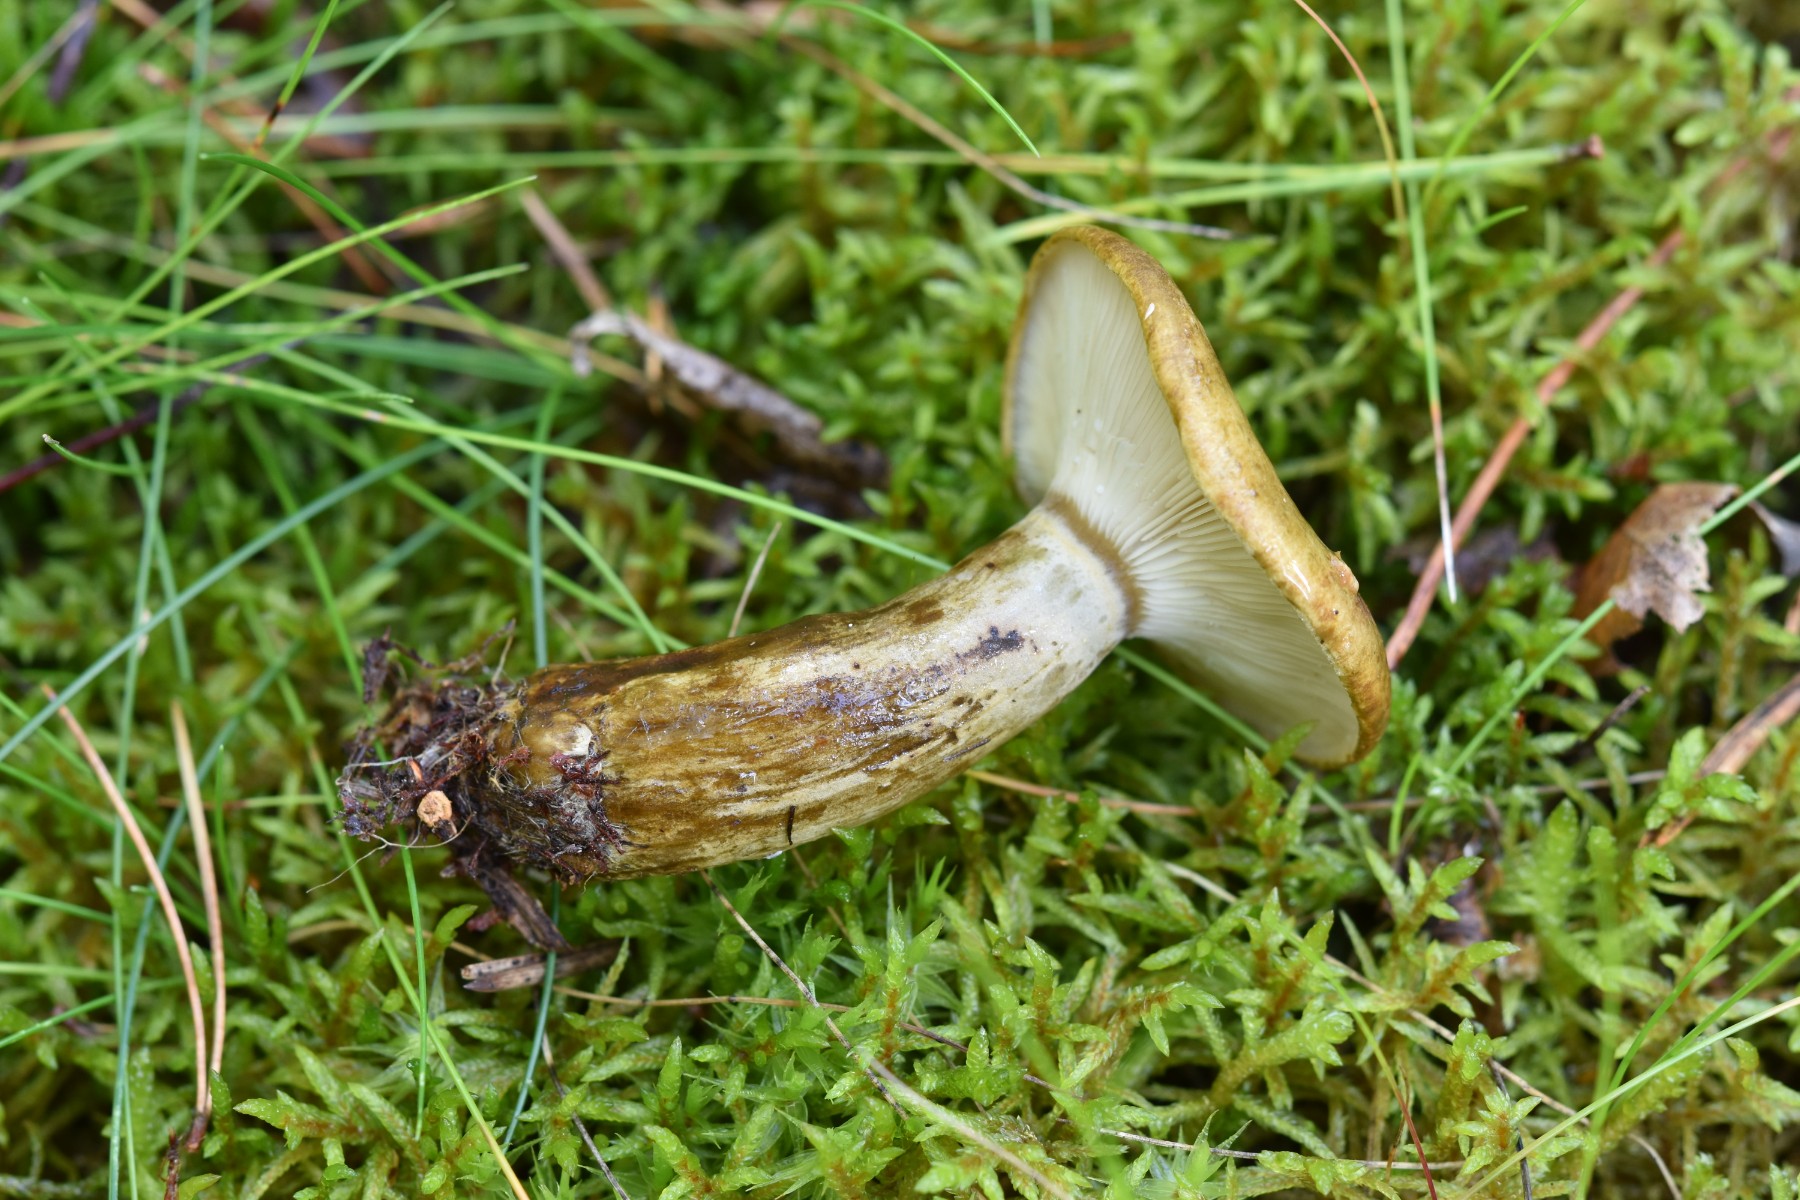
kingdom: Fungi
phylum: Basidiomycota
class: Agaricomycetes
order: Russulales
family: Russulaceae
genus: Lactarius
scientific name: Lactarius necator
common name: manddraber-mælkehat
